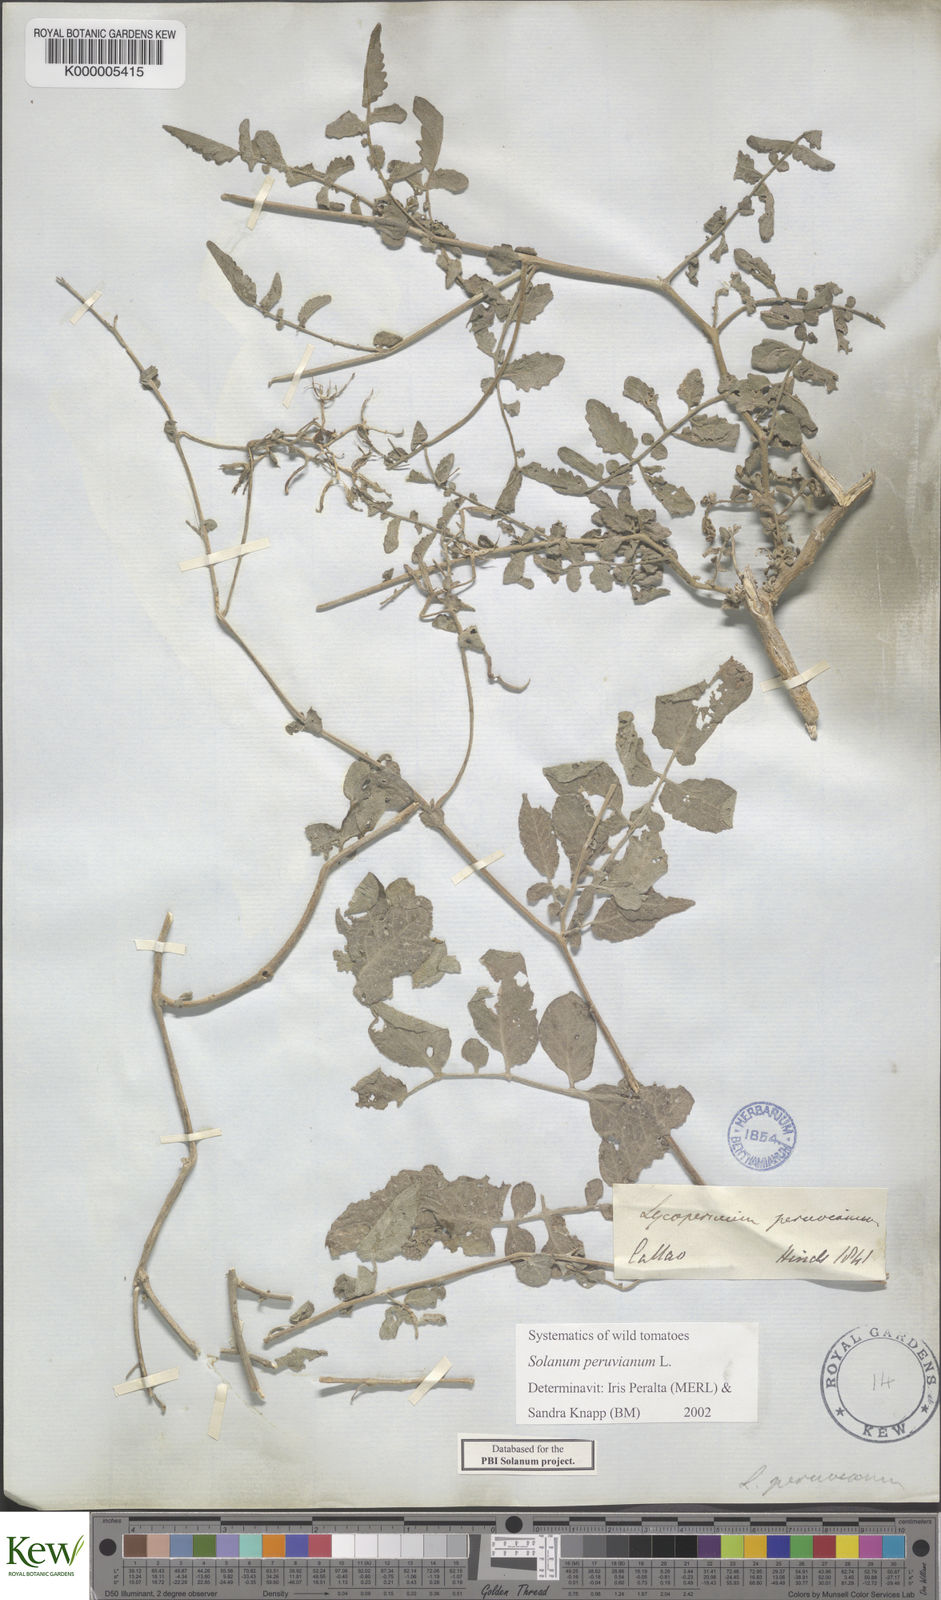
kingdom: Plantae
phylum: Tracheophyta
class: Magnoliopsida
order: Solanales
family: Solanaceae
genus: Solanum
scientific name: Solanum peruvianum
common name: Peruvian nightshade
